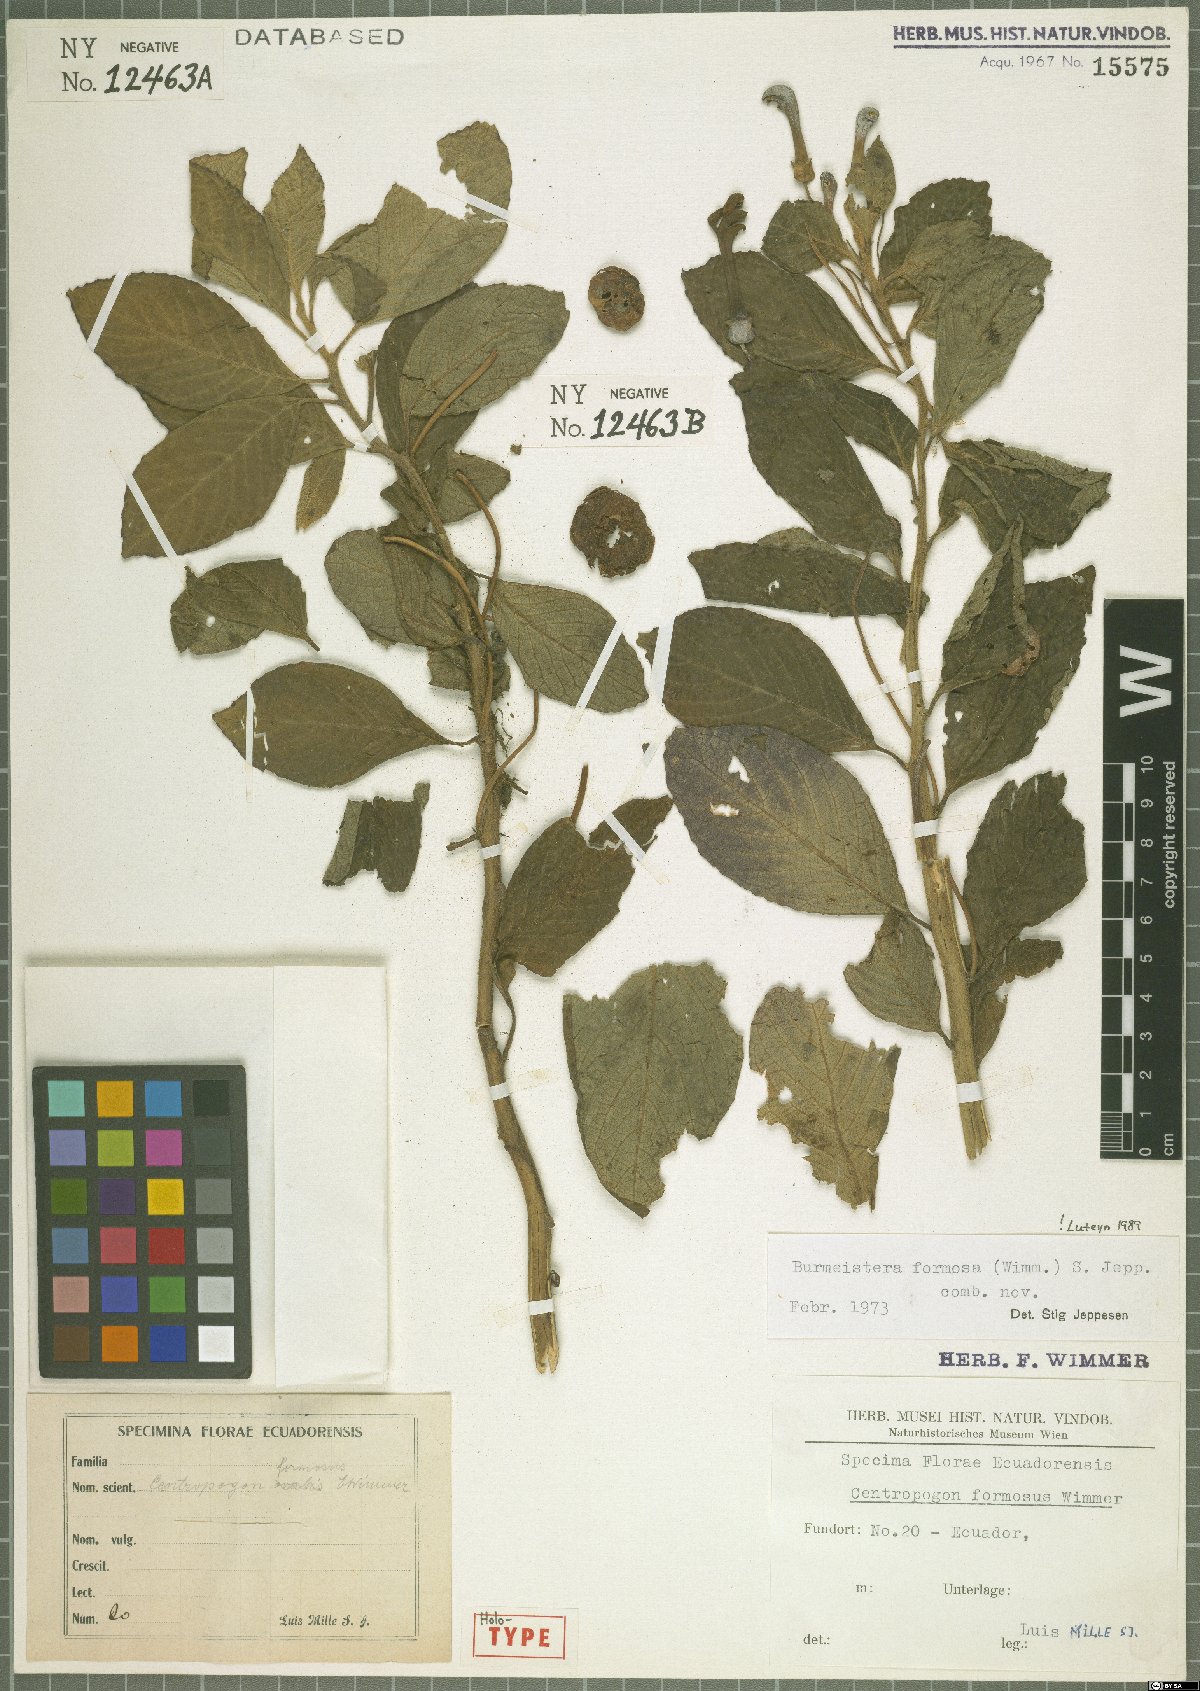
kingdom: Plantae
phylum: Tracheophyta
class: Magnoliopsida
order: Asterales
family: Campanulaceae
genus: Burmeistera
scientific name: Burmeistera formosa
